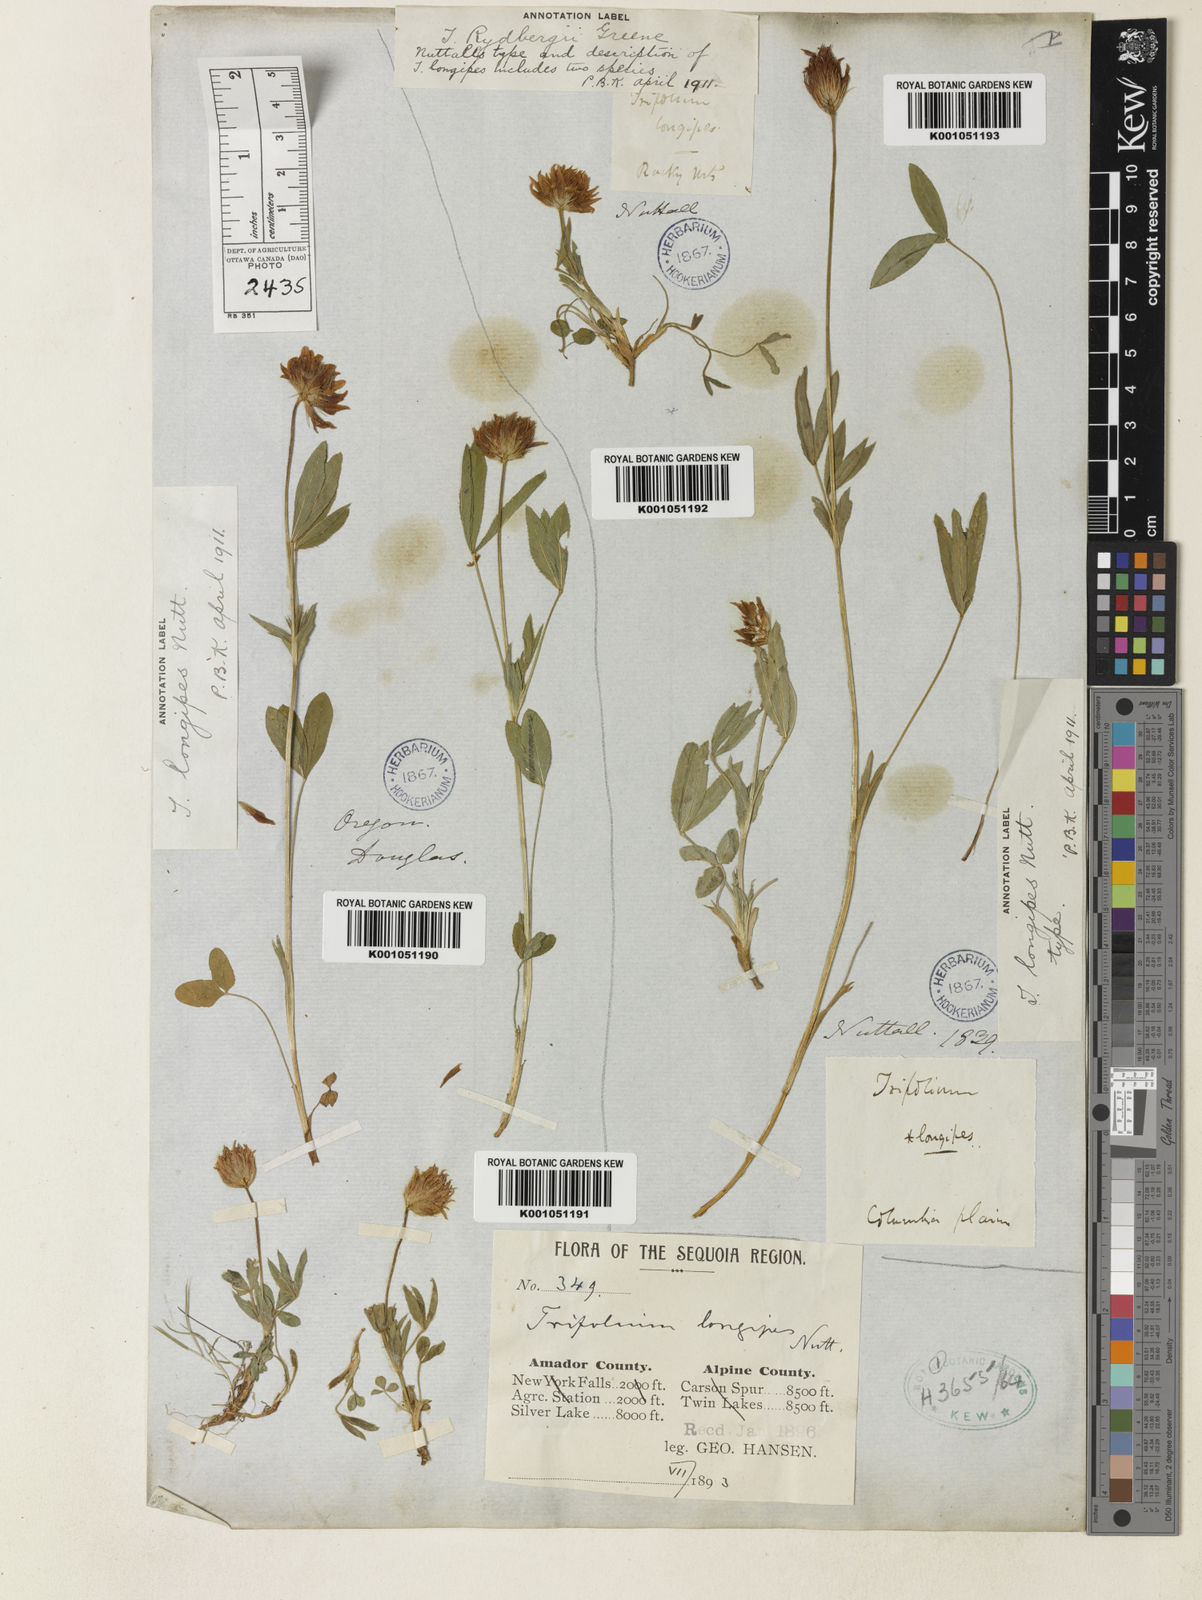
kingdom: Plantae
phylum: Tracheophyta
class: Magnoliopsida
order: Fabales
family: Fabaceae
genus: Trifolium
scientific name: Trifolium longipes
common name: Long-stalk clover
